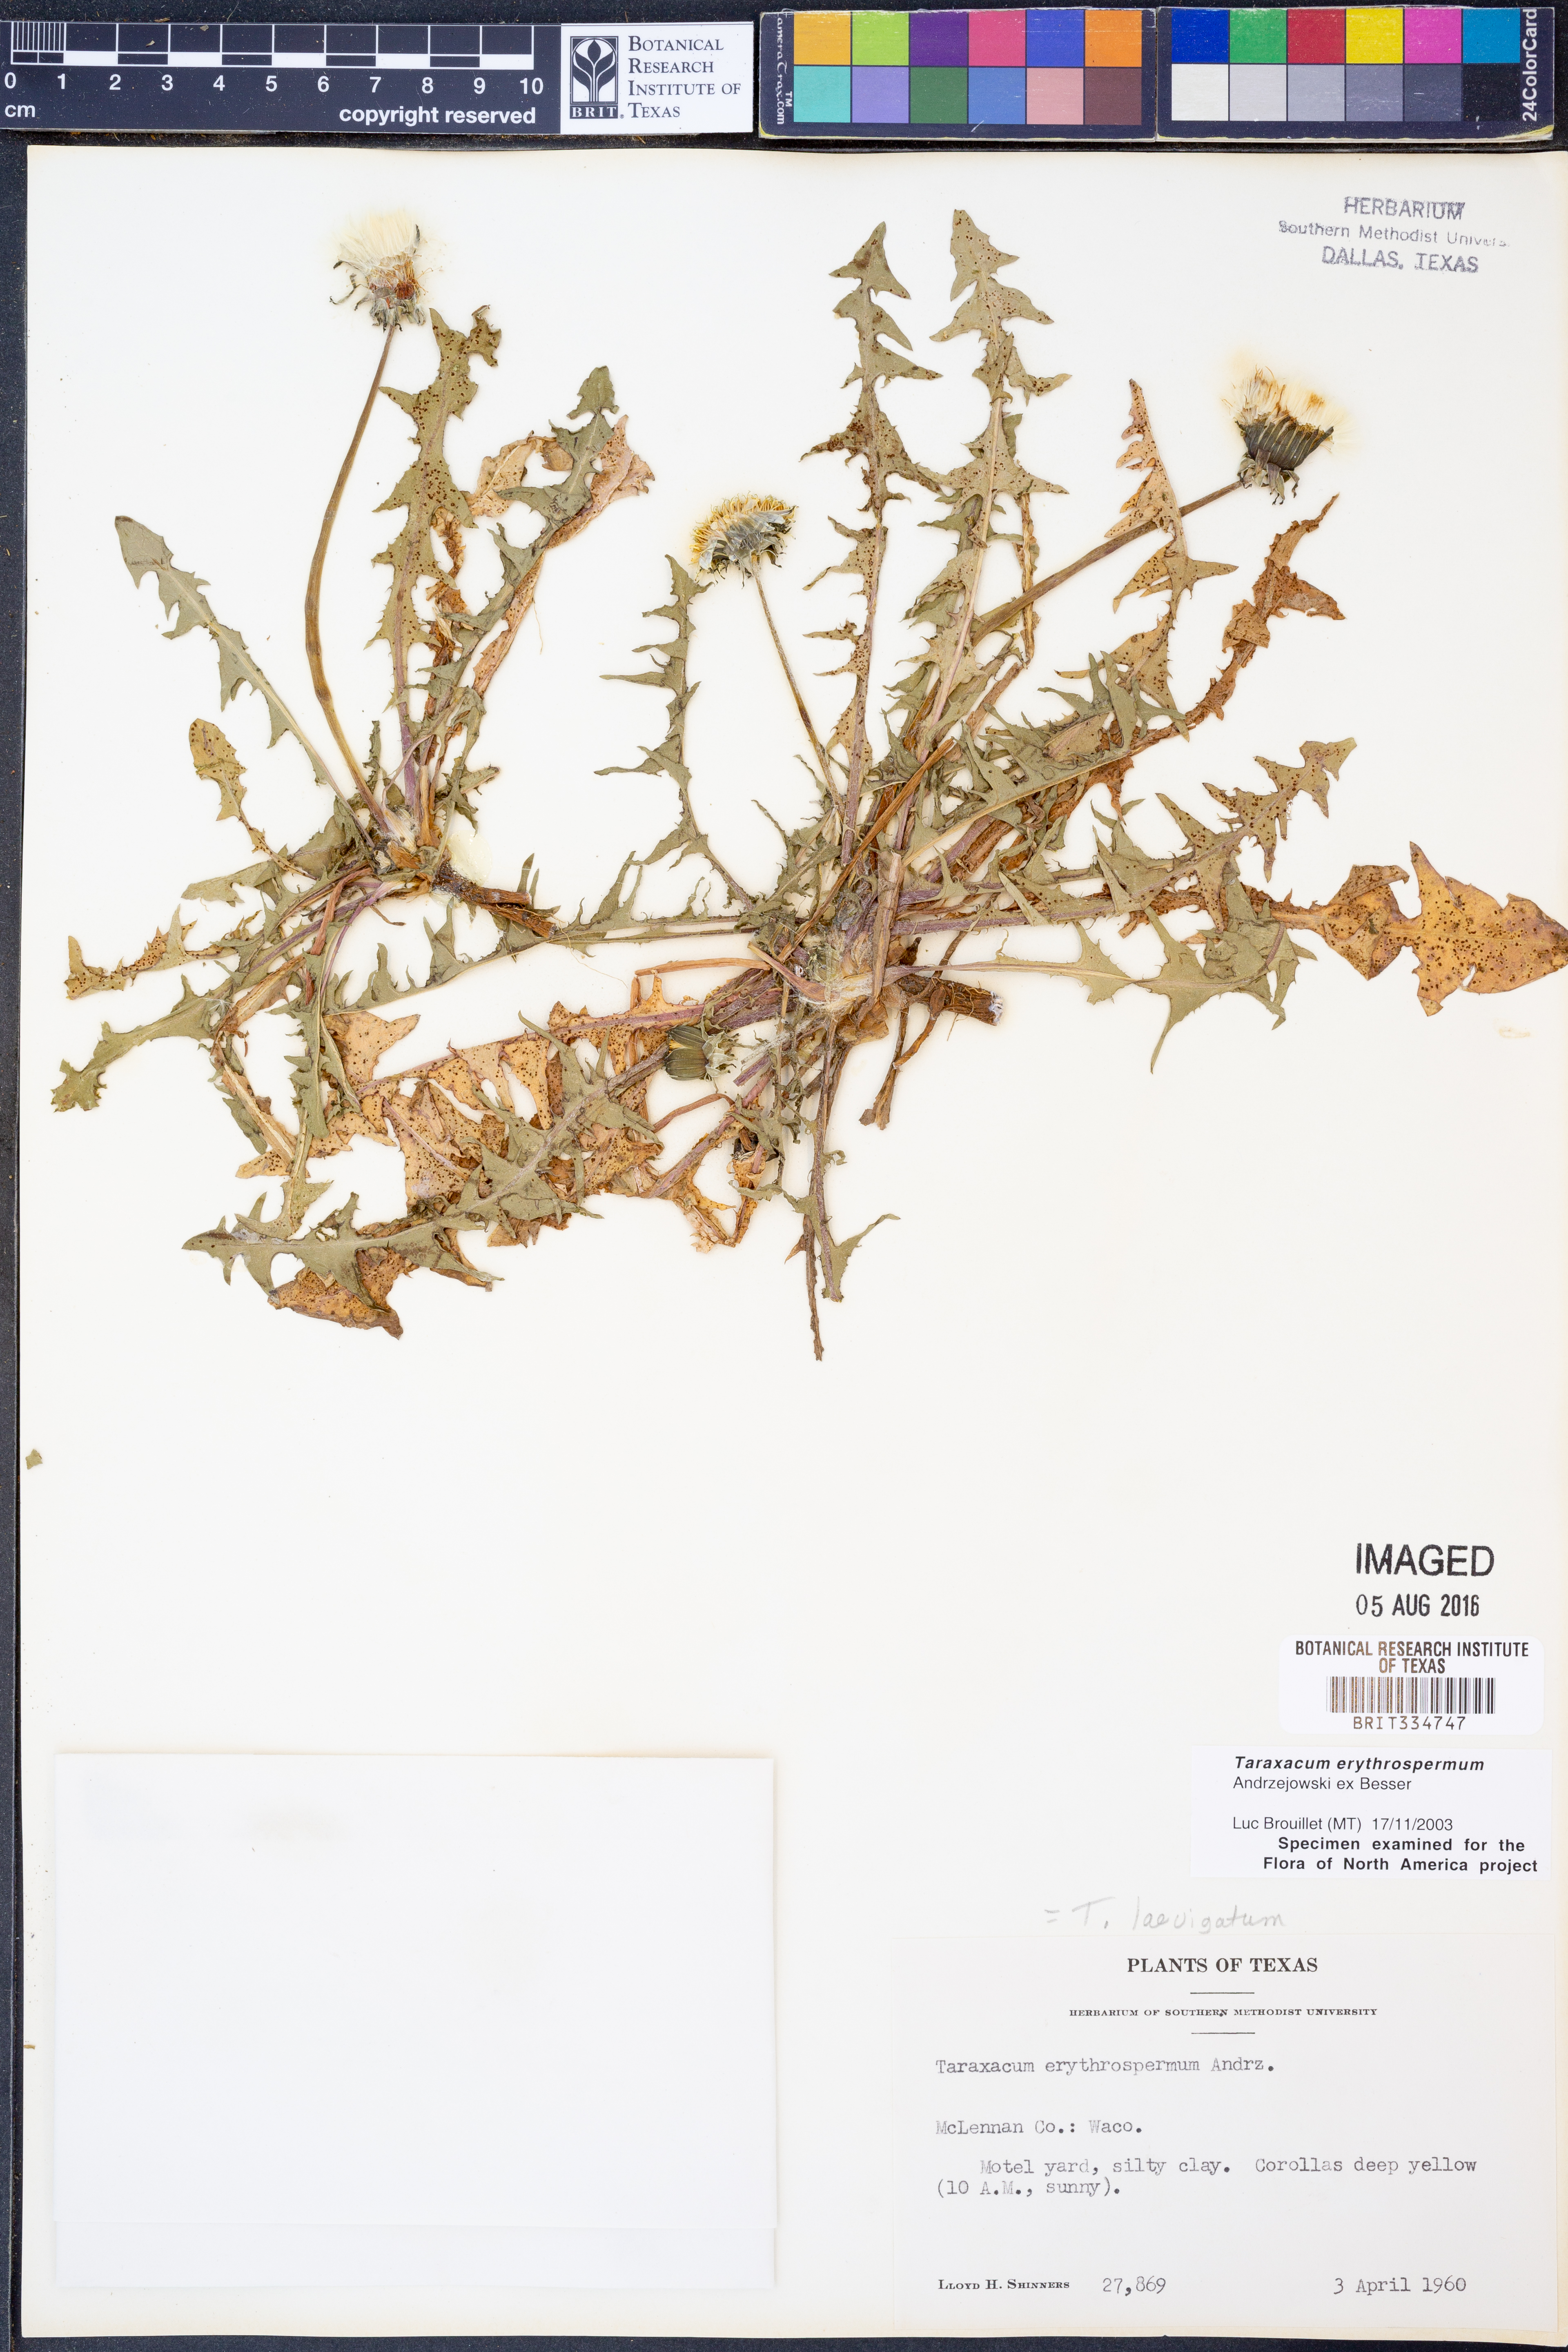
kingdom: Plantae
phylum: Tracheophyta
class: Magnoliopsida
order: Asterales
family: Asteraceae
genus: Taraxacum
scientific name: Taraxacum erythrospermum
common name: Rock dandelion
